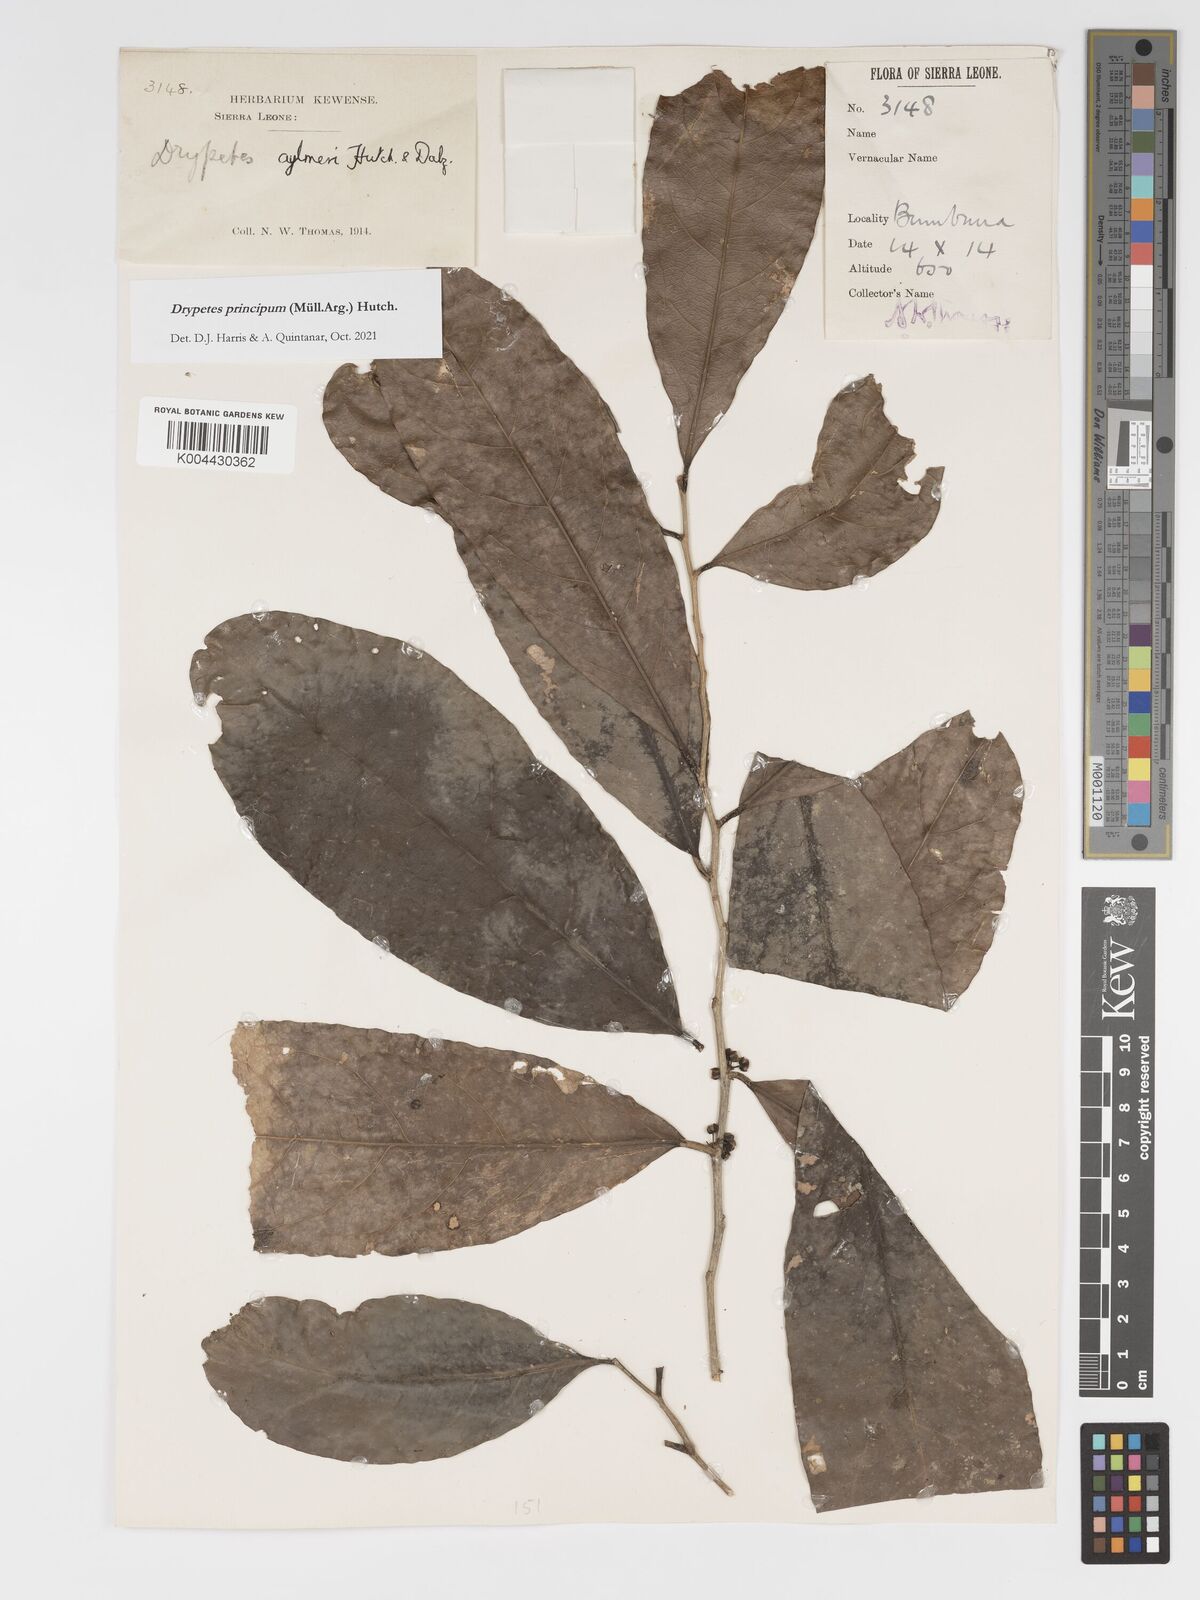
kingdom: Plantae
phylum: Tracheophyta
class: Magnoliopsida
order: Malpighiales
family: Putranjivaceae
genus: Drypetes
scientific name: Drypetes principum
